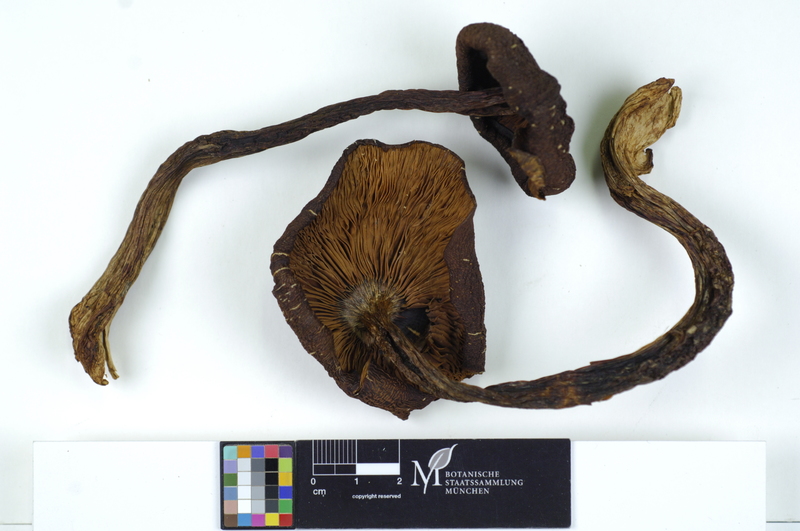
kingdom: Fungi
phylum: Basidiomycota
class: Agaricomycetes
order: Agaricales
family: Lyophyllaceae
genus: Lyophyllum
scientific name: Lyophyllum decastes
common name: Clustered domecap
